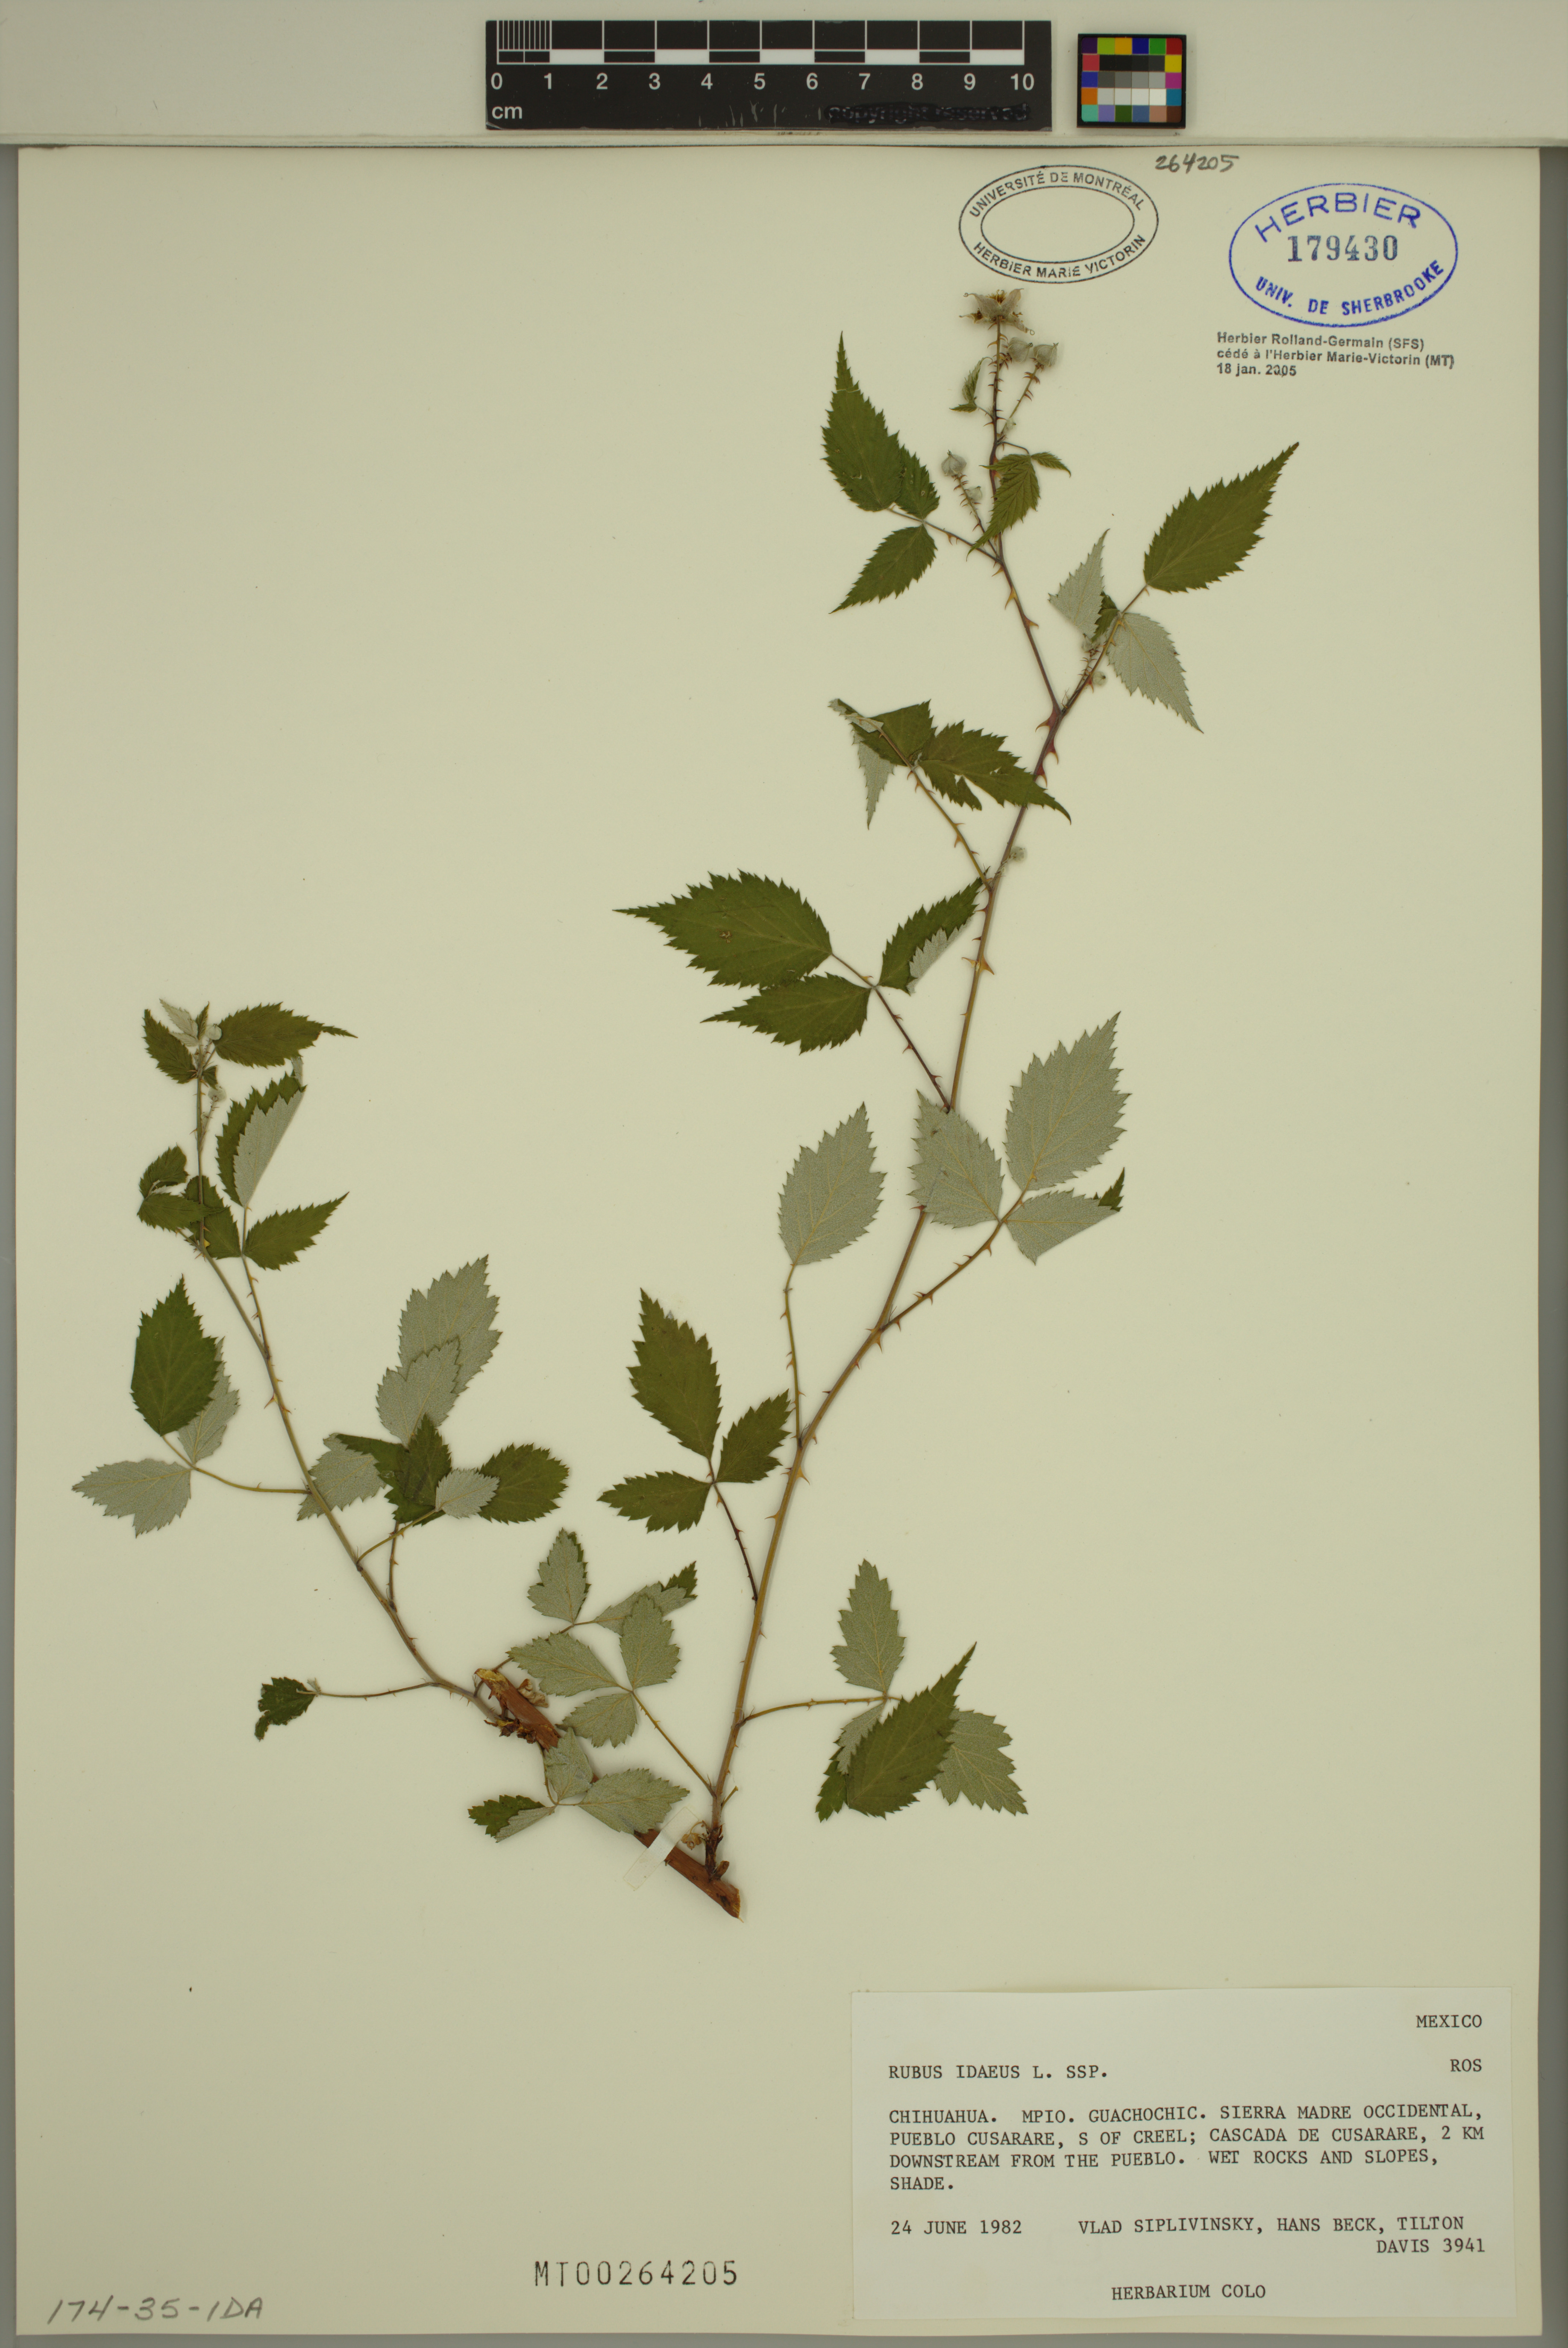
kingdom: Plantae
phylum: Tracheophyta
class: Magnoliopsida
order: Rosales
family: Rosaceae
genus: Rubus
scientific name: Rubus idaeus
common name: Raspberry
